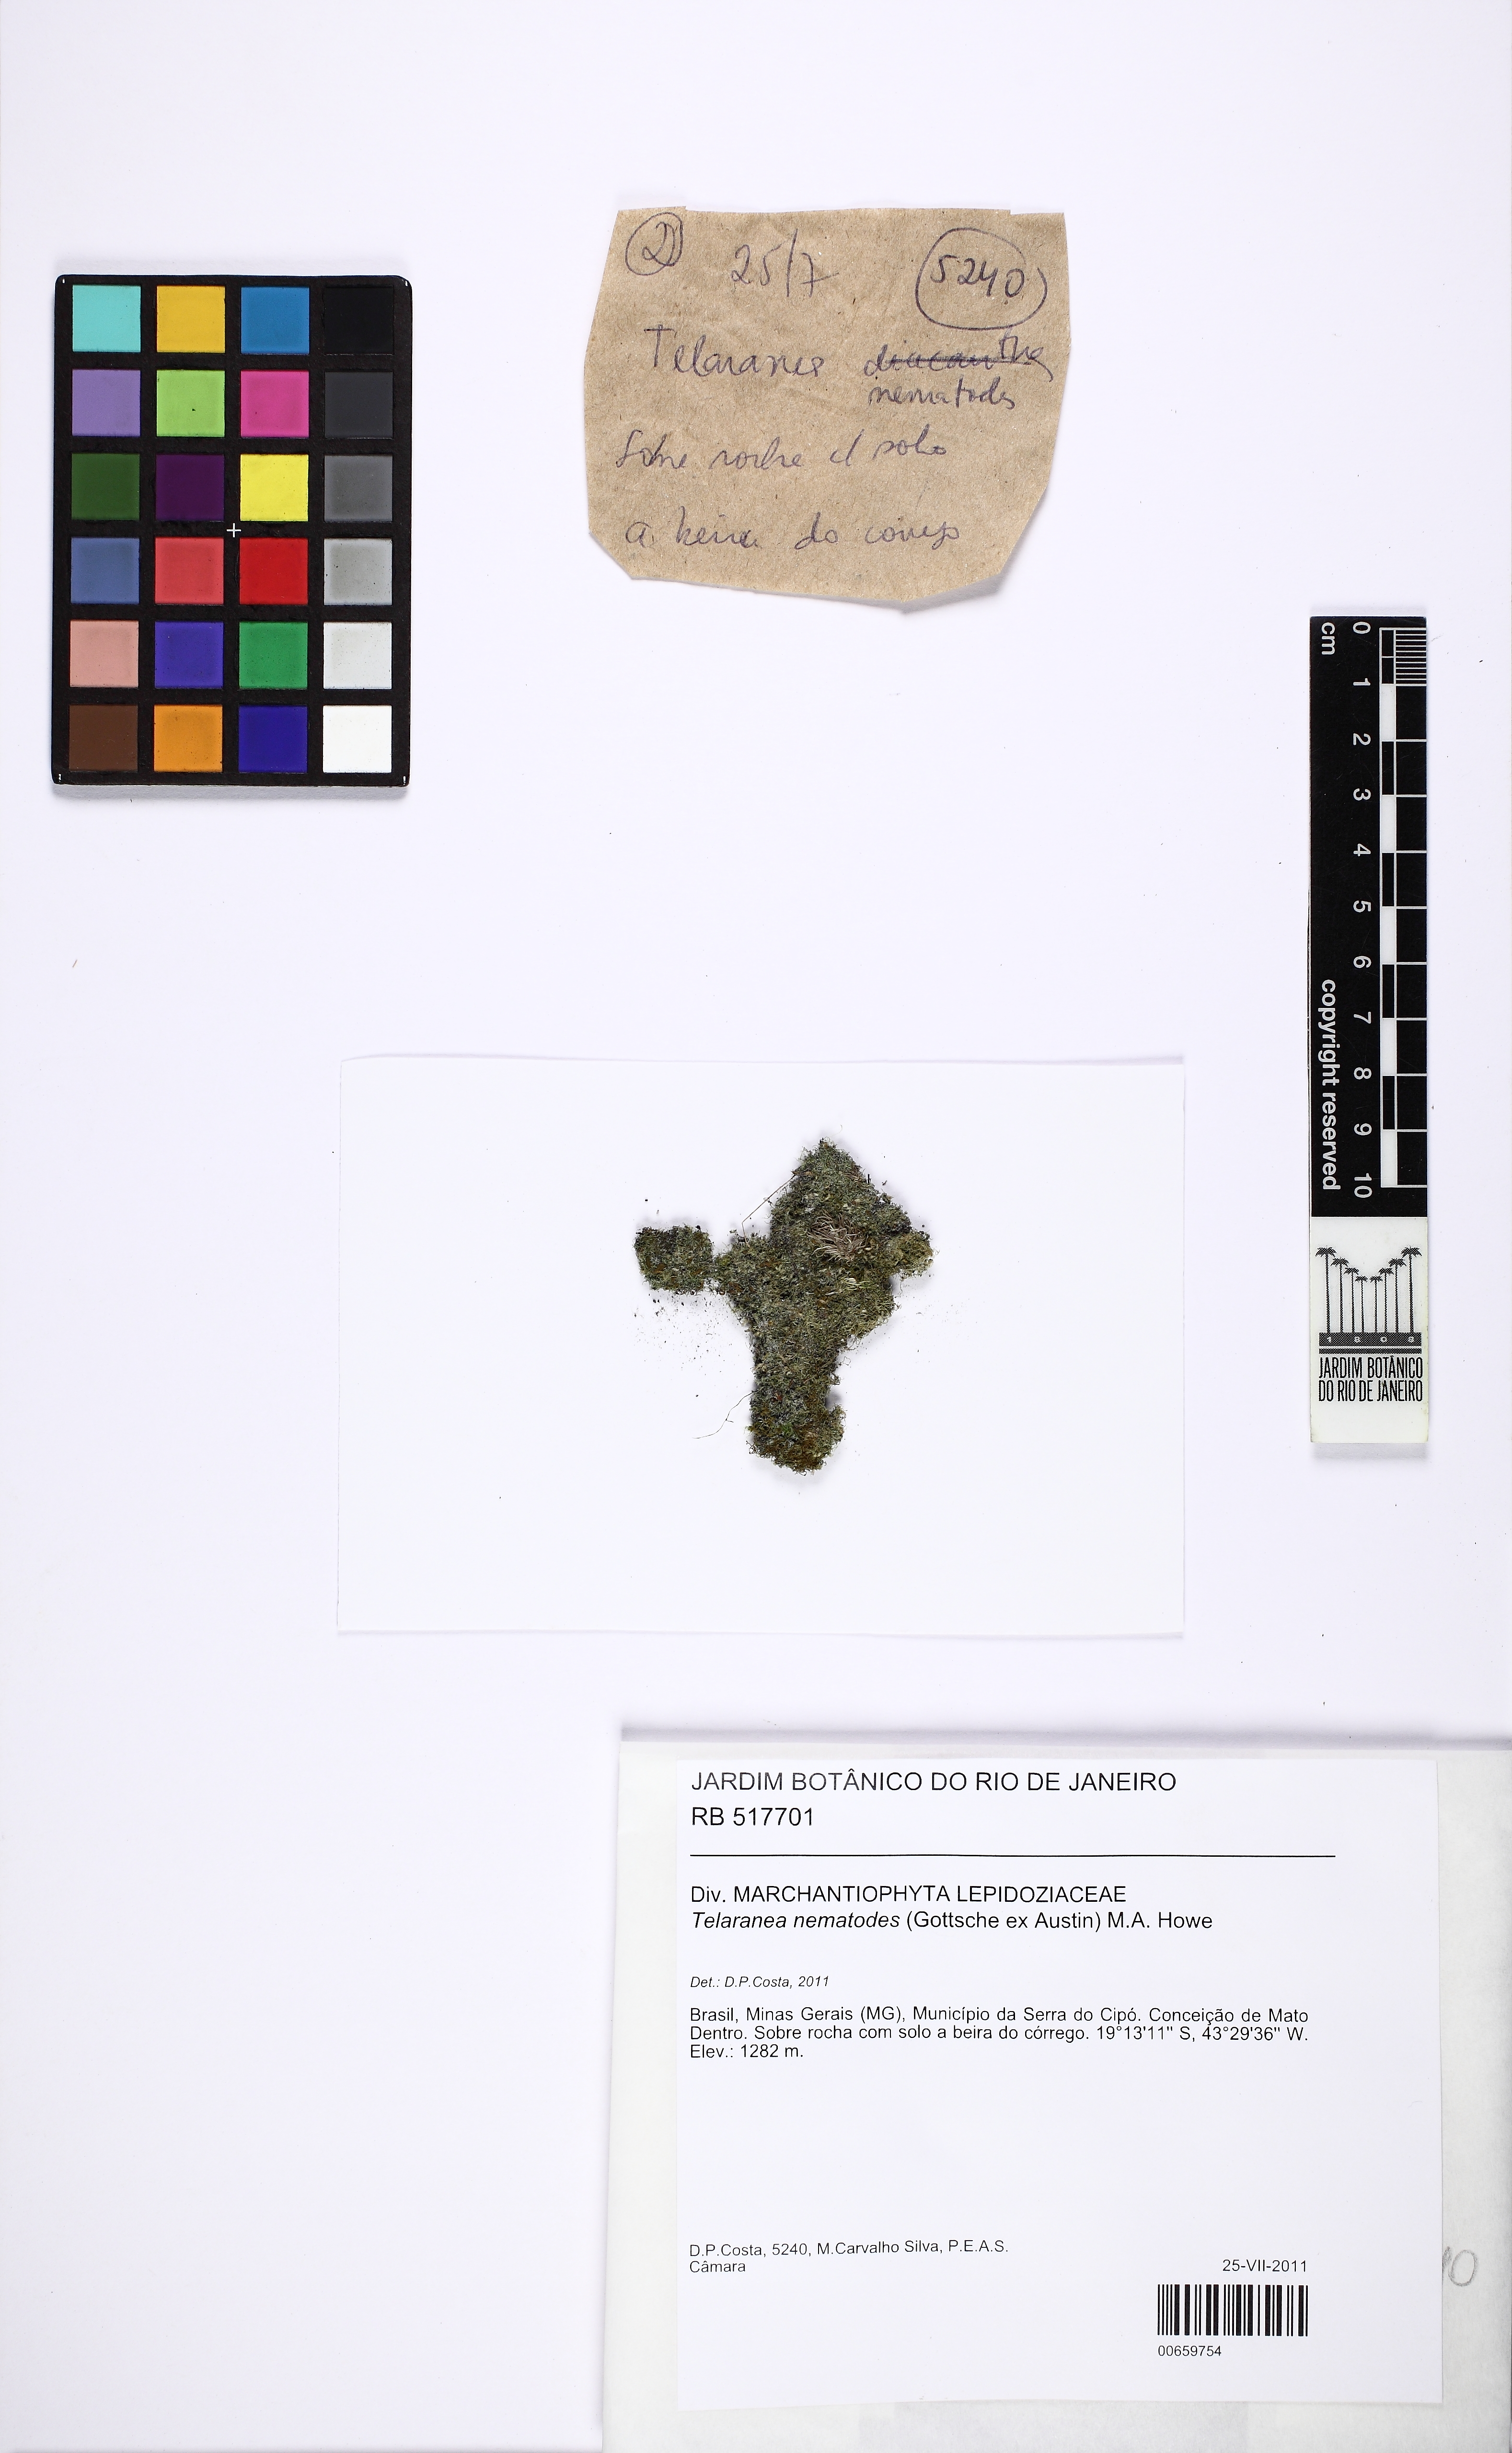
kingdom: Plantae
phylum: Marchantiophyta
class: Jungermanniopsida
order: Jungermanniales
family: Lepidoziaceae
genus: Telaranea
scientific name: Telaranea nematodes
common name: Irish threadwort
